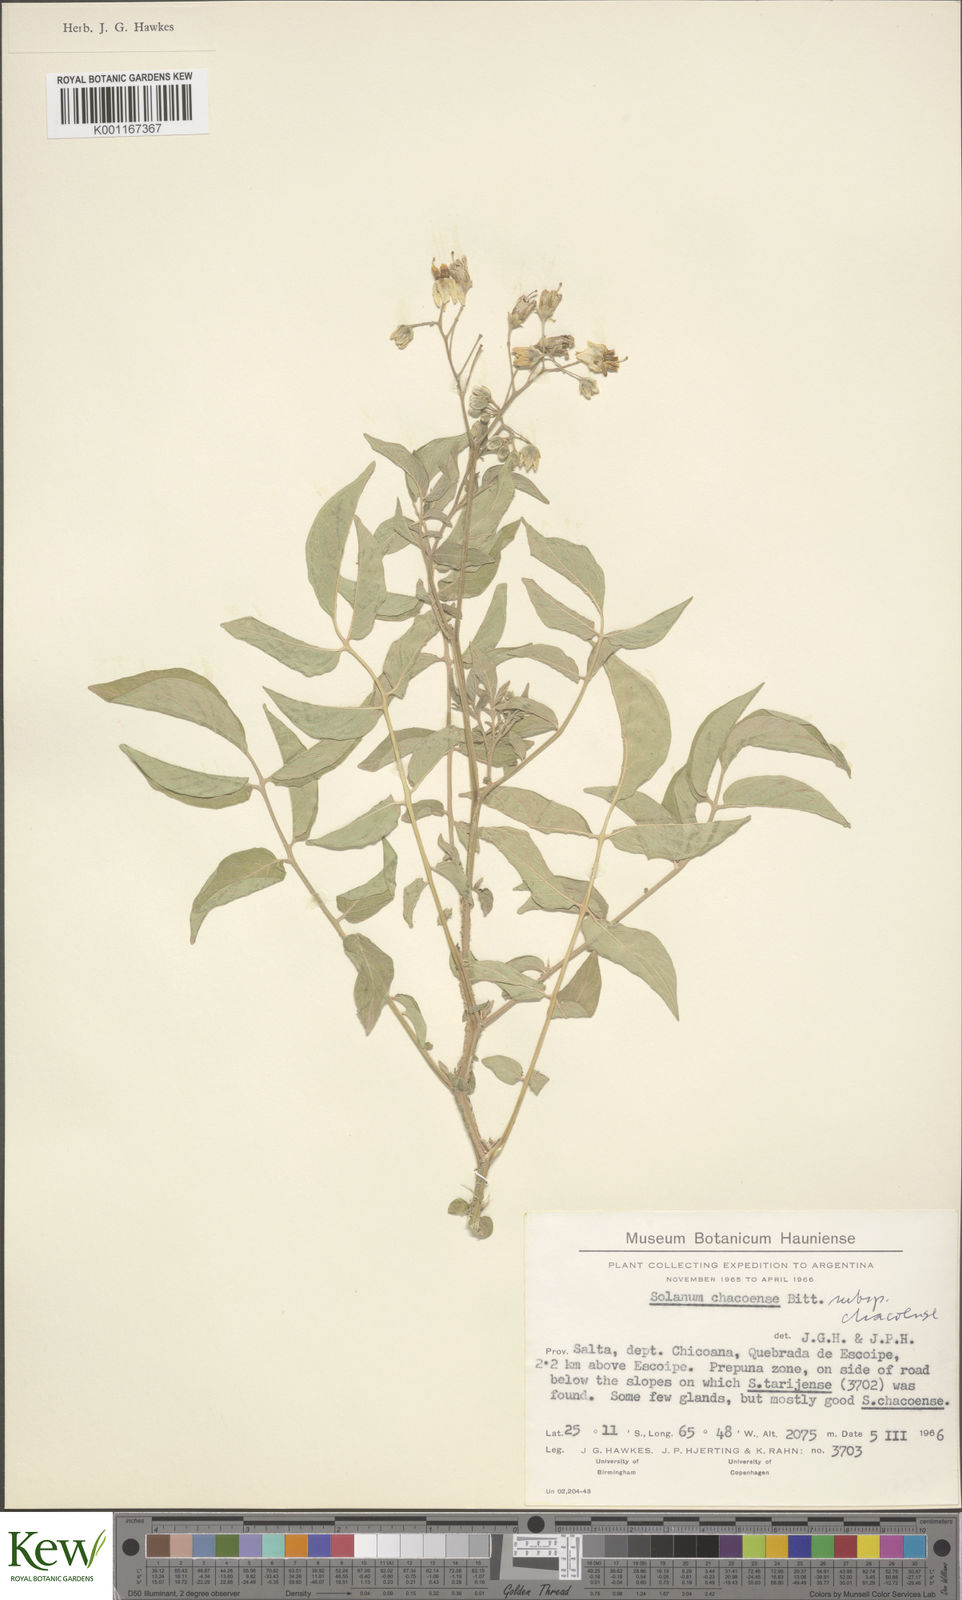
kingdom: Plantae
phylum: Tracheophyta
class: Magnoliopsida
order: Solanales
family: Solanaceae
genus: Solanum
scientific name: Solanum chacoense
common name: Chaco potato
